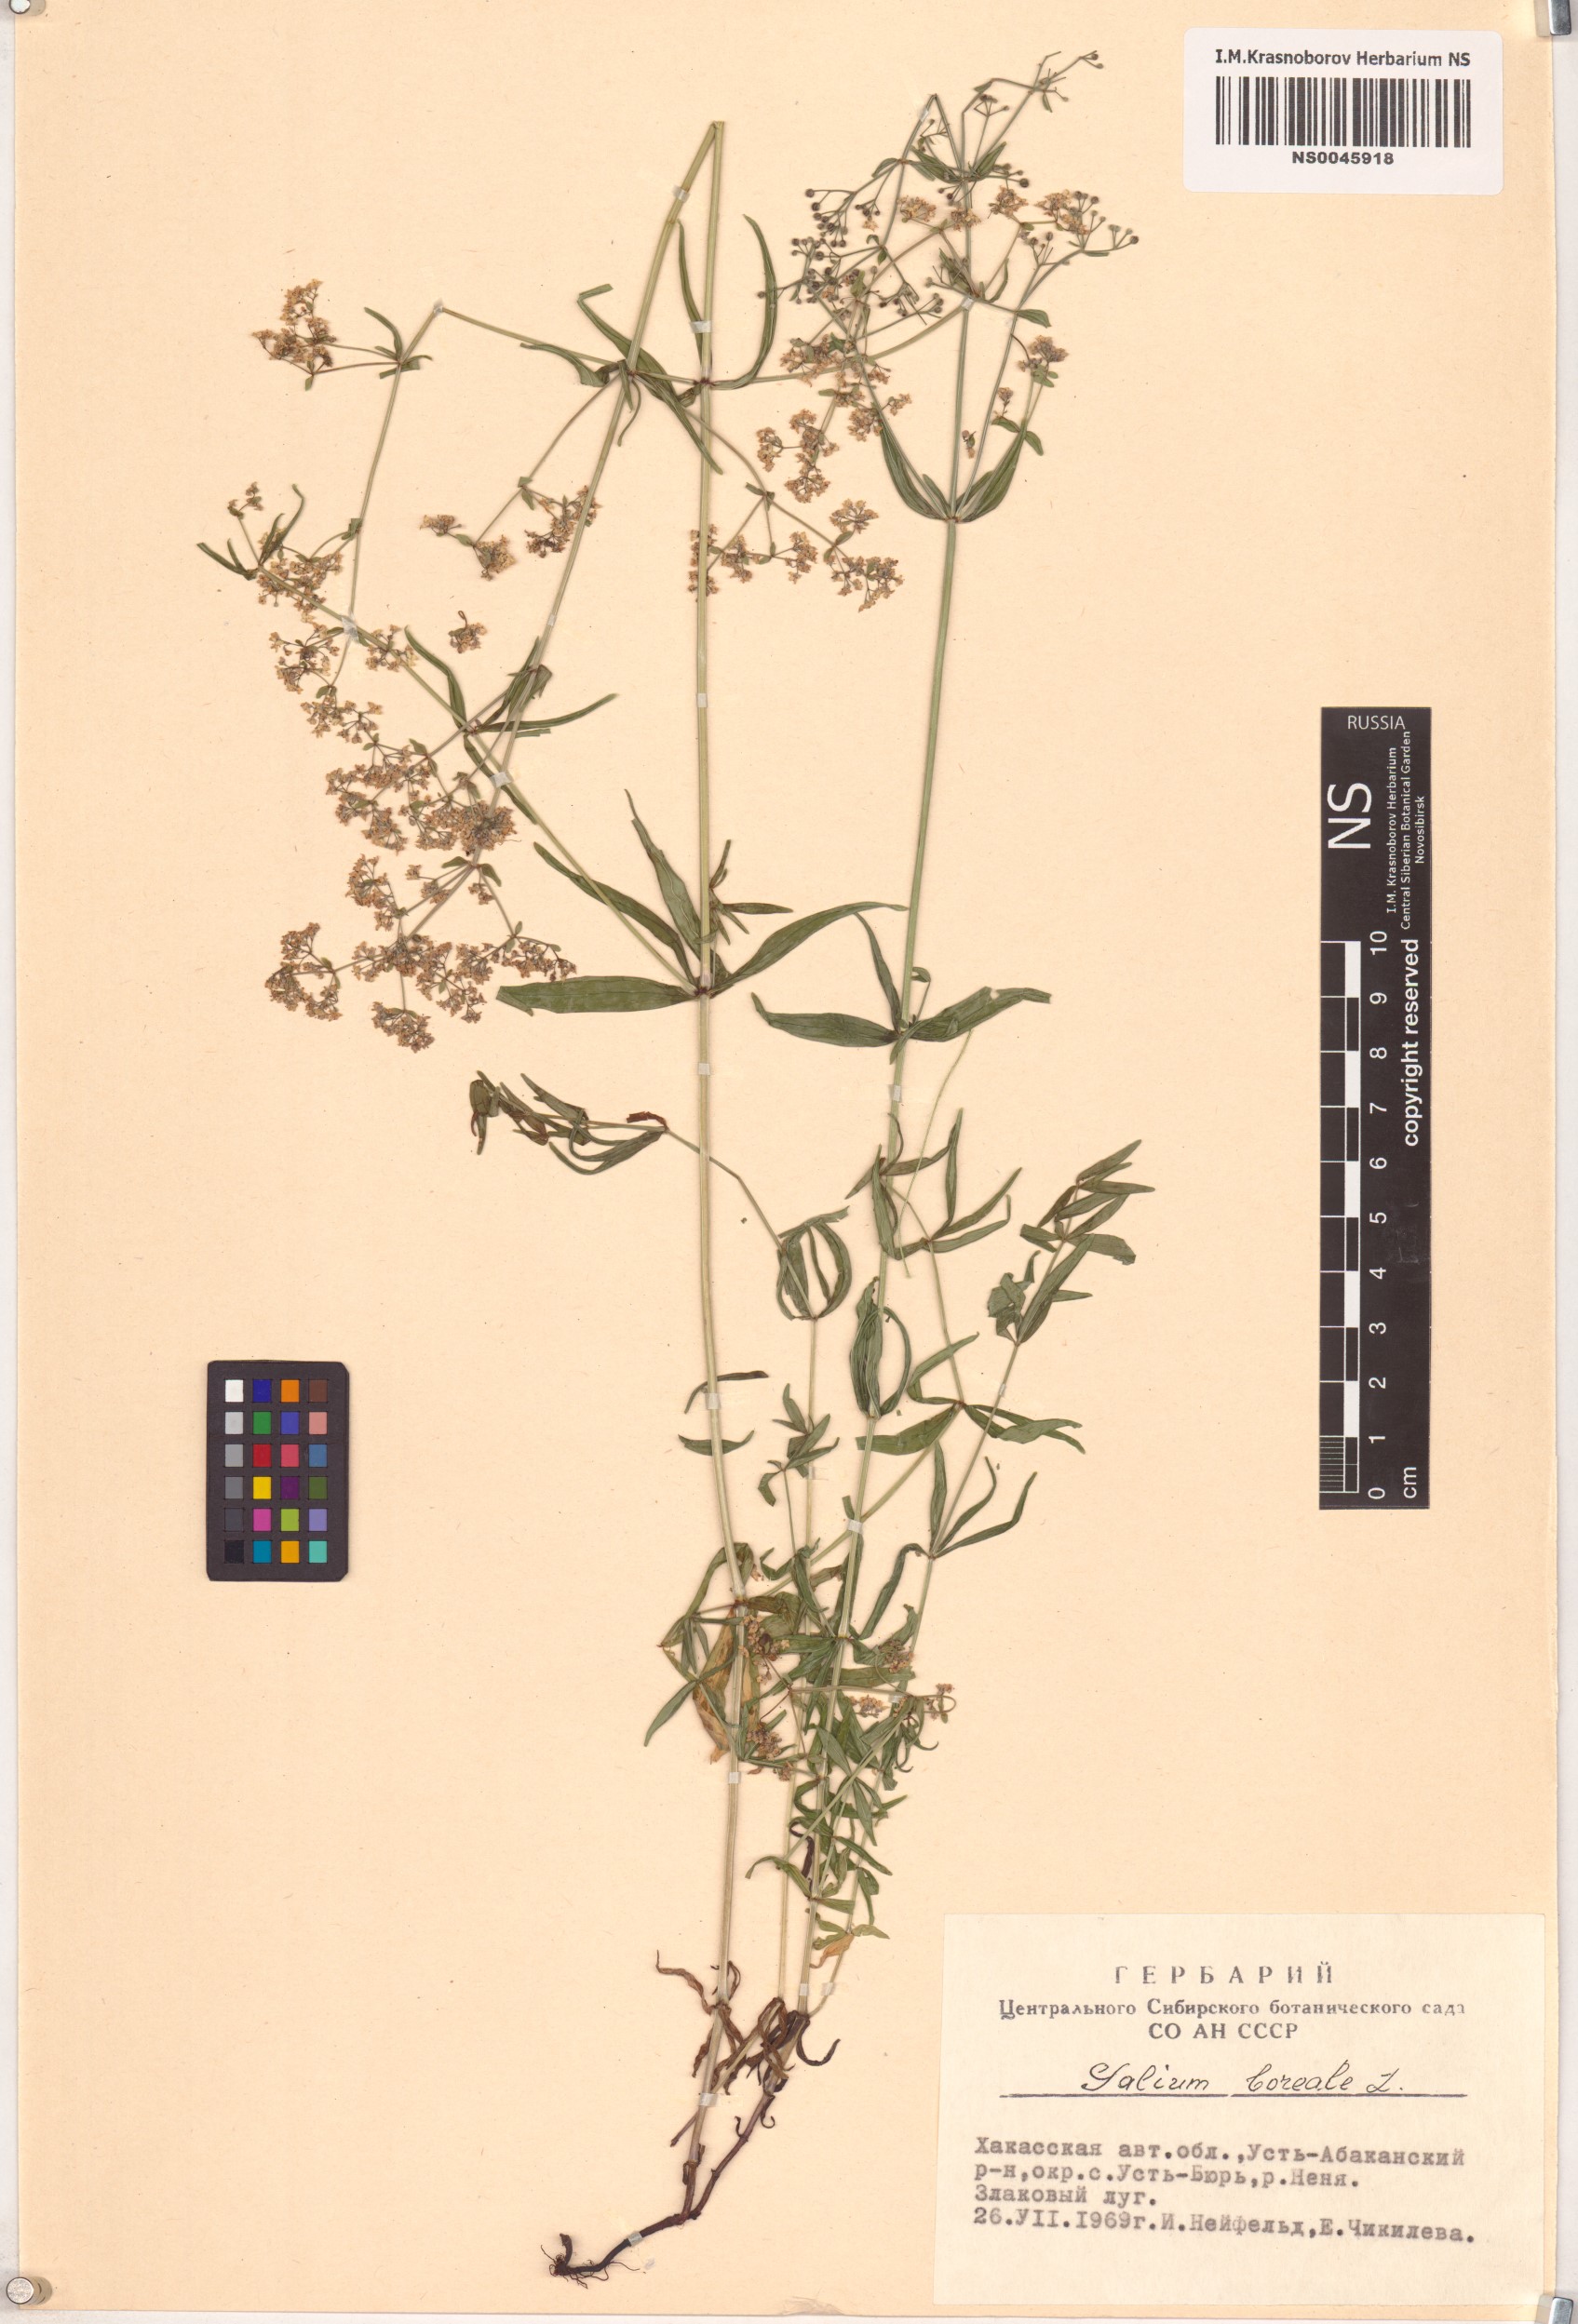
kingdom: Plantae
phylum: Tracheophyta
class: Magnoliopsida
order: Gentianales
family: Rubiaceae
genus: Galium
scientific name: Galium boreale
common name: Northern bedstraw
